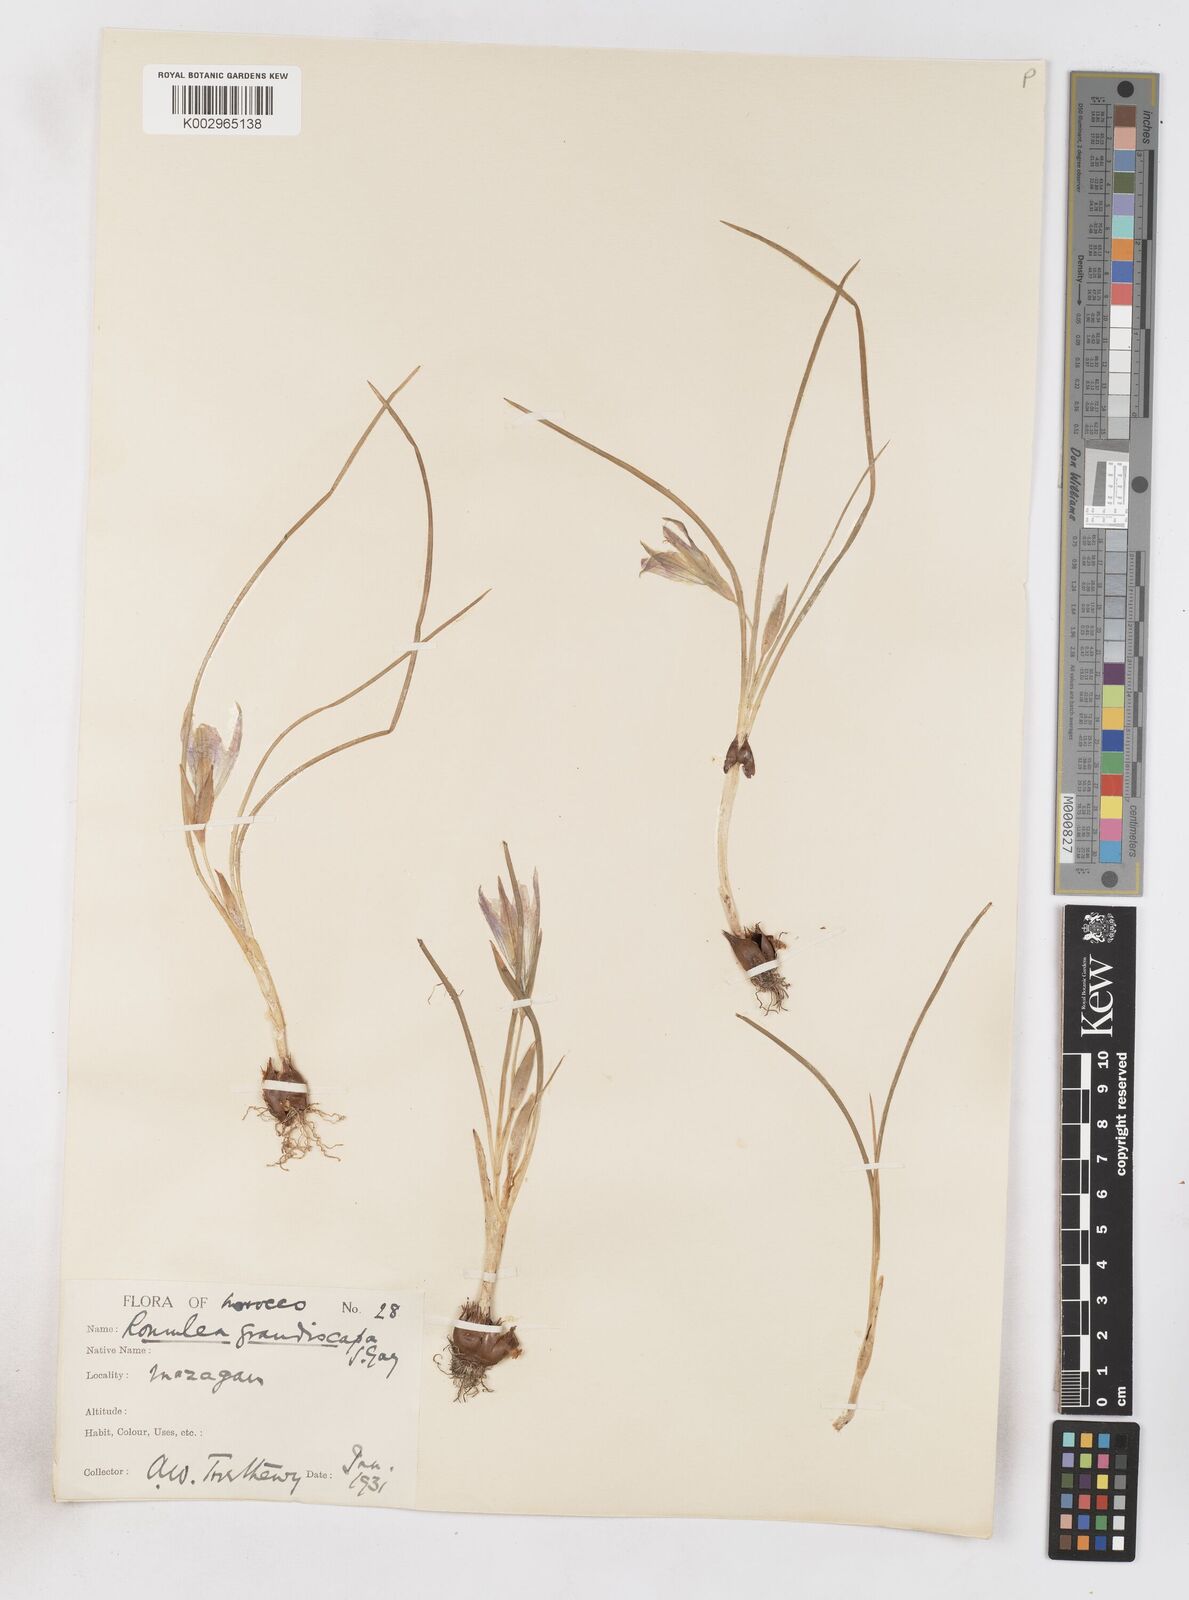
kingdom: Plantae
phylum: Tracheophyta
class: Liliopsida
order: Asparagales
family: Iridaceae
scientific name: Iridaceae
